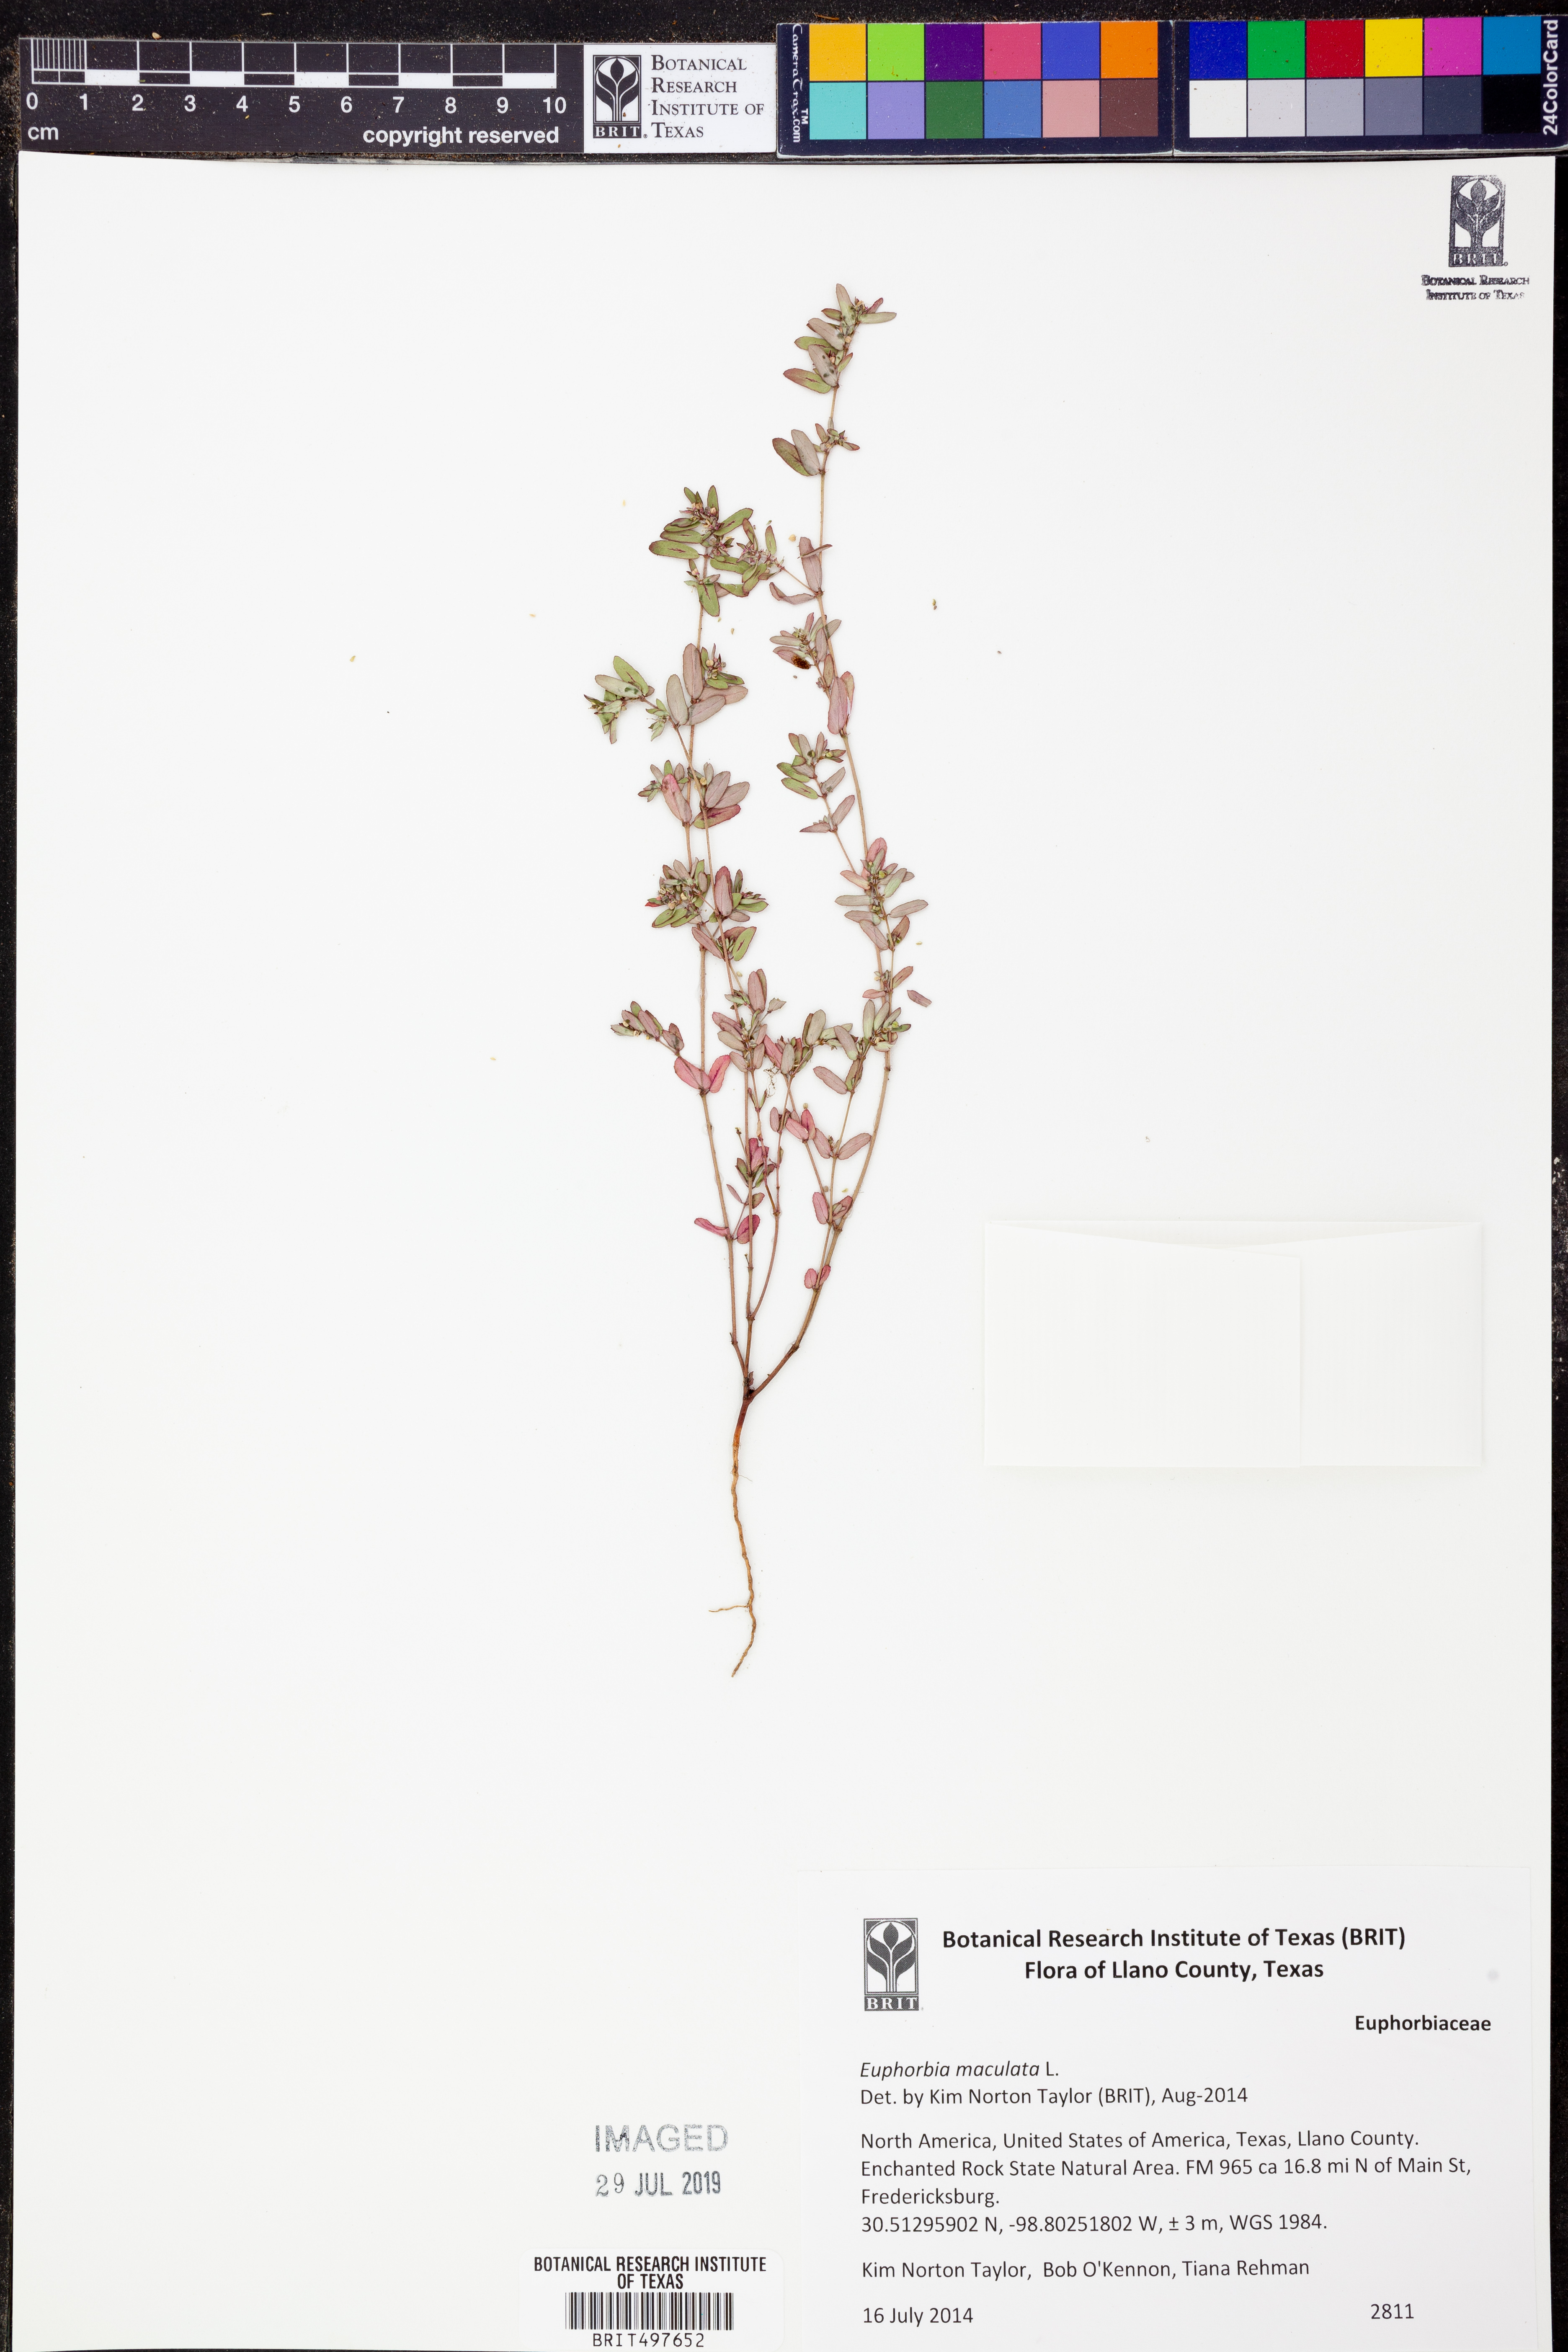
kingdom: Plantae
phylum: Tracheophyta
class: Magnoliopsida
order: Malpighiales
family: Euphorbiaceae
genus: Euphorbia
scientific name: Euphorbia maculata
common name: Spotted spurge
